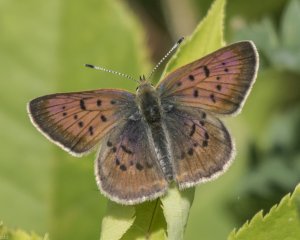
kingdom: Animalia
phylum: Arthropoda
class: Insecta
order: Lepidoptera
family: Lycaenidae
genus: Epidemia
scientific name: Epidemia dorcas
